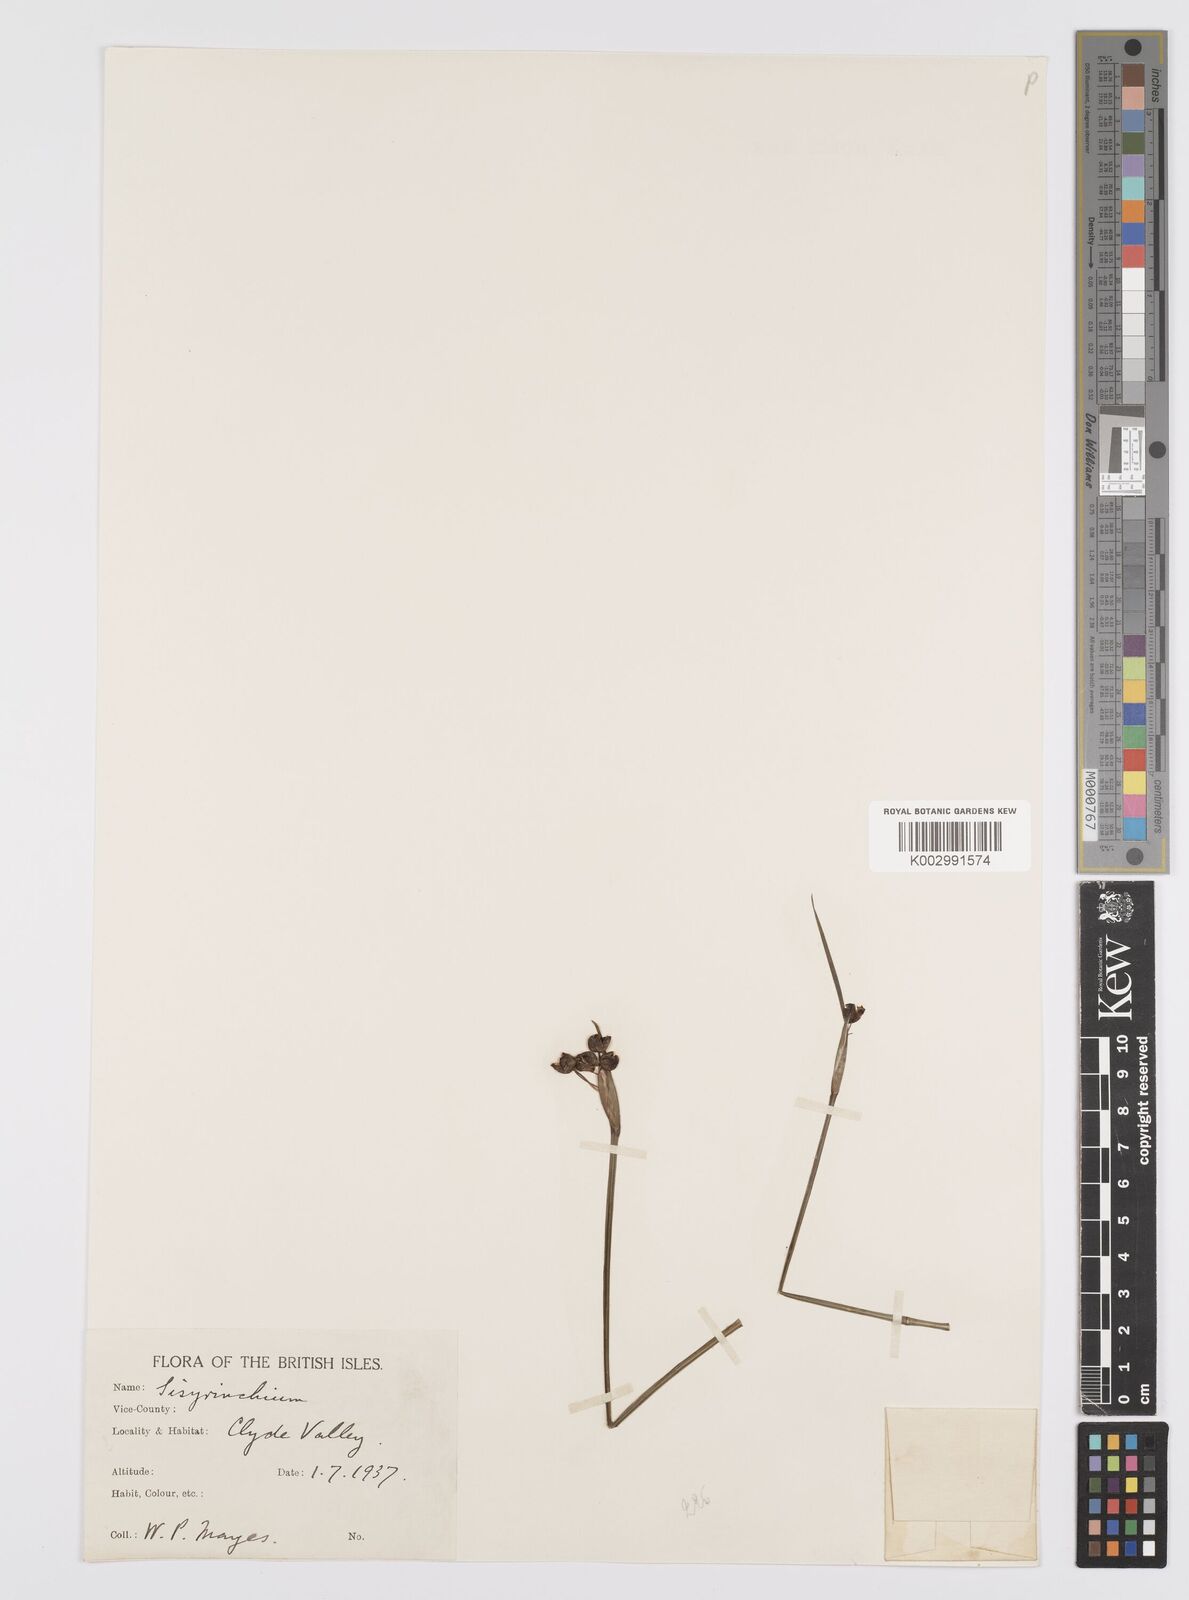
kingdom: Plantae
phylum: Tracheophyta
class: Liliopsida
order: Asparagales
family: Iridaceae
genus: Sisyrinchium
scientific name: Sisyrinchium angustifolium
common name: Narrow-leaf blue-eyed-grass
